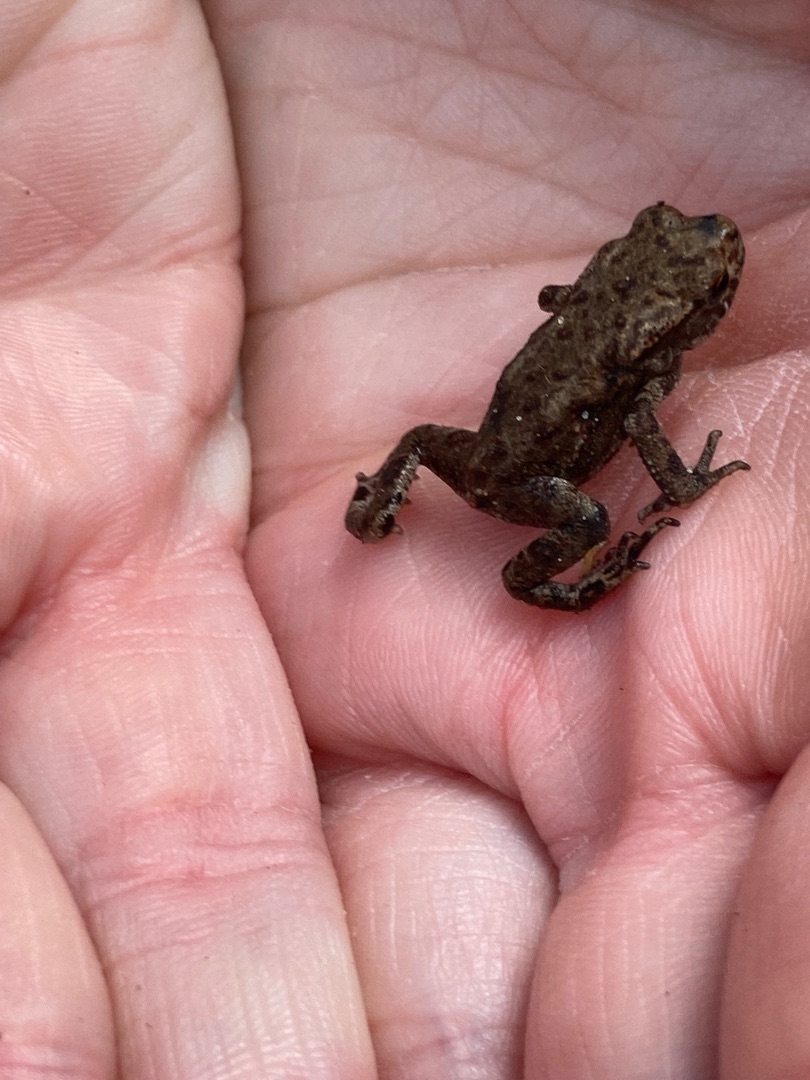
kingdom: Animalia
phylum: Chordata
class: Amphibia
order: Anura
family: Bufonidae
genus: Bufo
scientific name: Bufo bufo
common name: Skrubtudse
